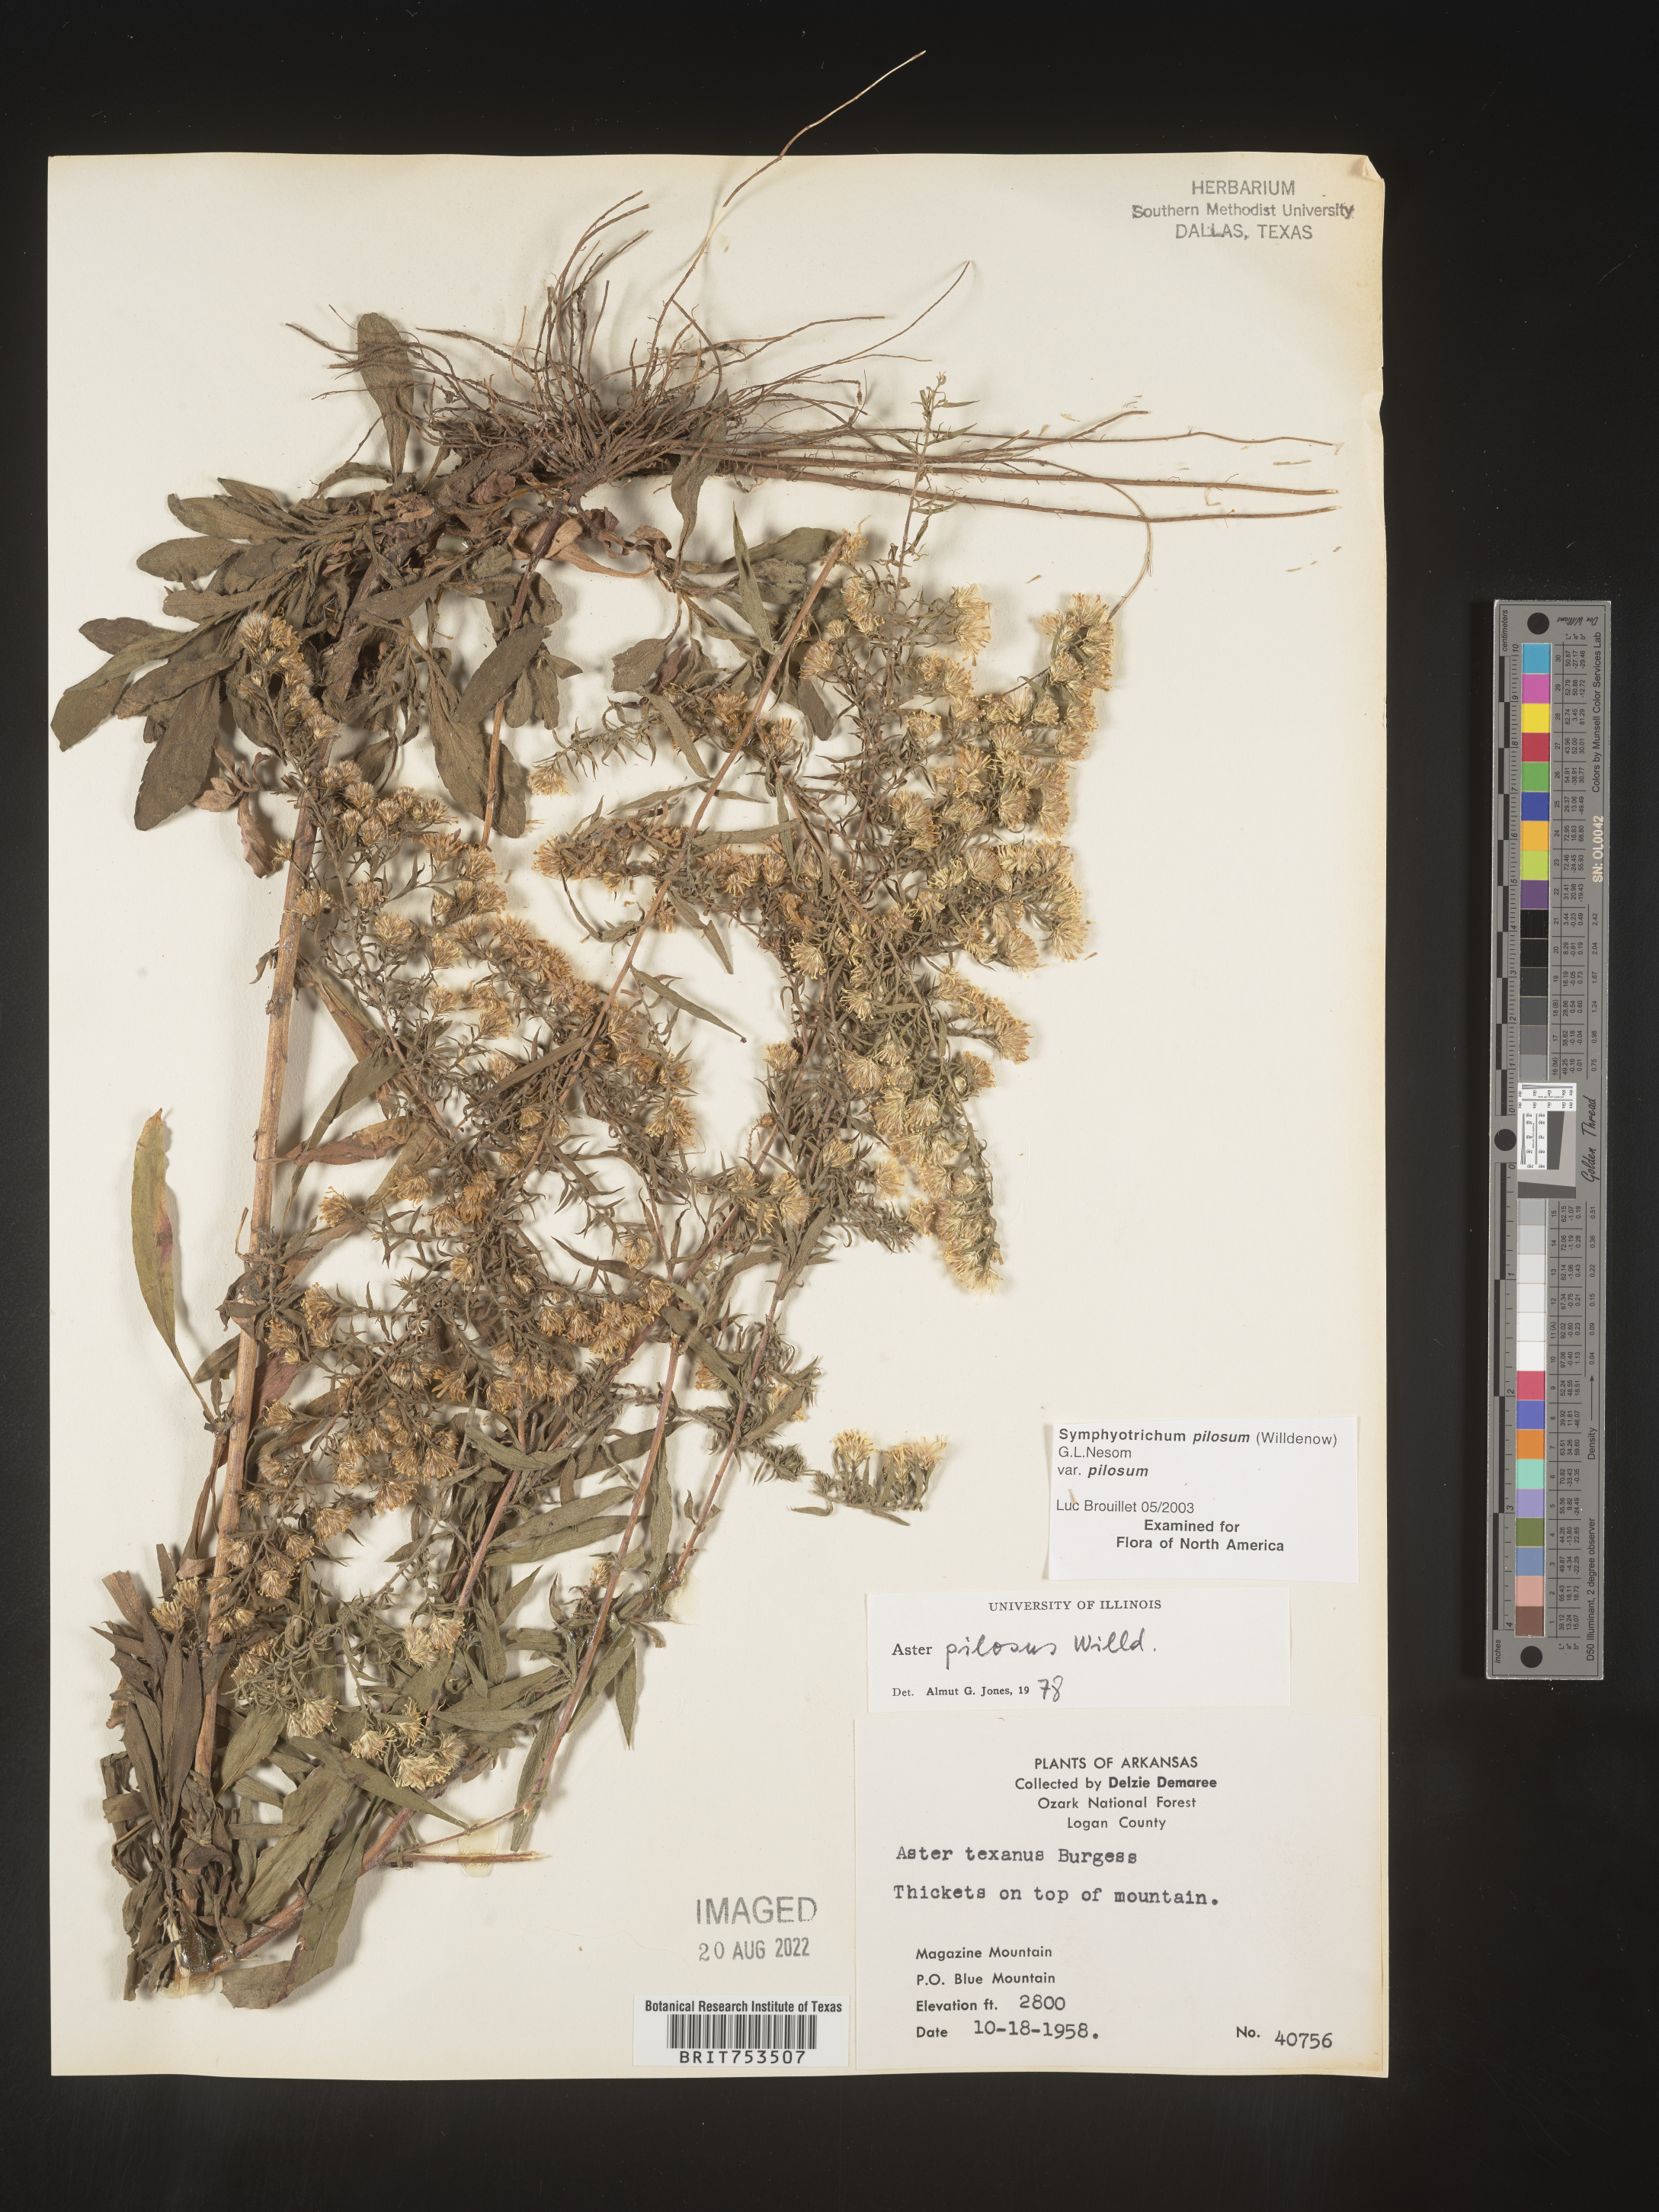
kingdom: Plantae
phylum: Tracheophyta
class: Magnoliopsida
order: Asterales
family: Asteraceae
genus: Symphyotrichum
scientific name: Symphyotrichum pilosum
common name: Awl aster
